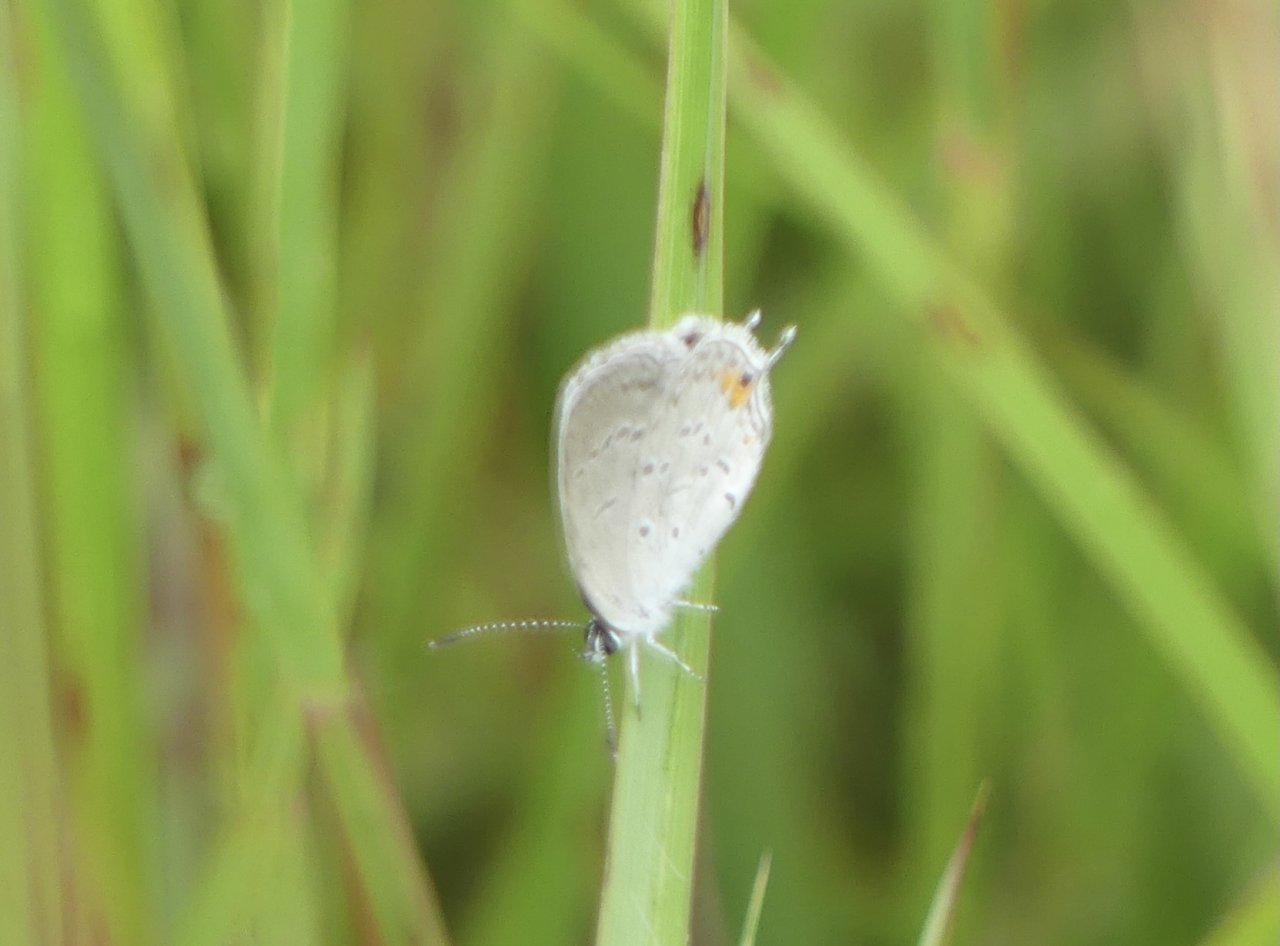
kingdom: Animalia
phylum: Arthropoda
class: Insecta
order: Lepidoptera
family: Lycaenidae
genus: Elkalyce
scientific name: Elkalyce comyntas
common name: Eastern Tailed-Blue
